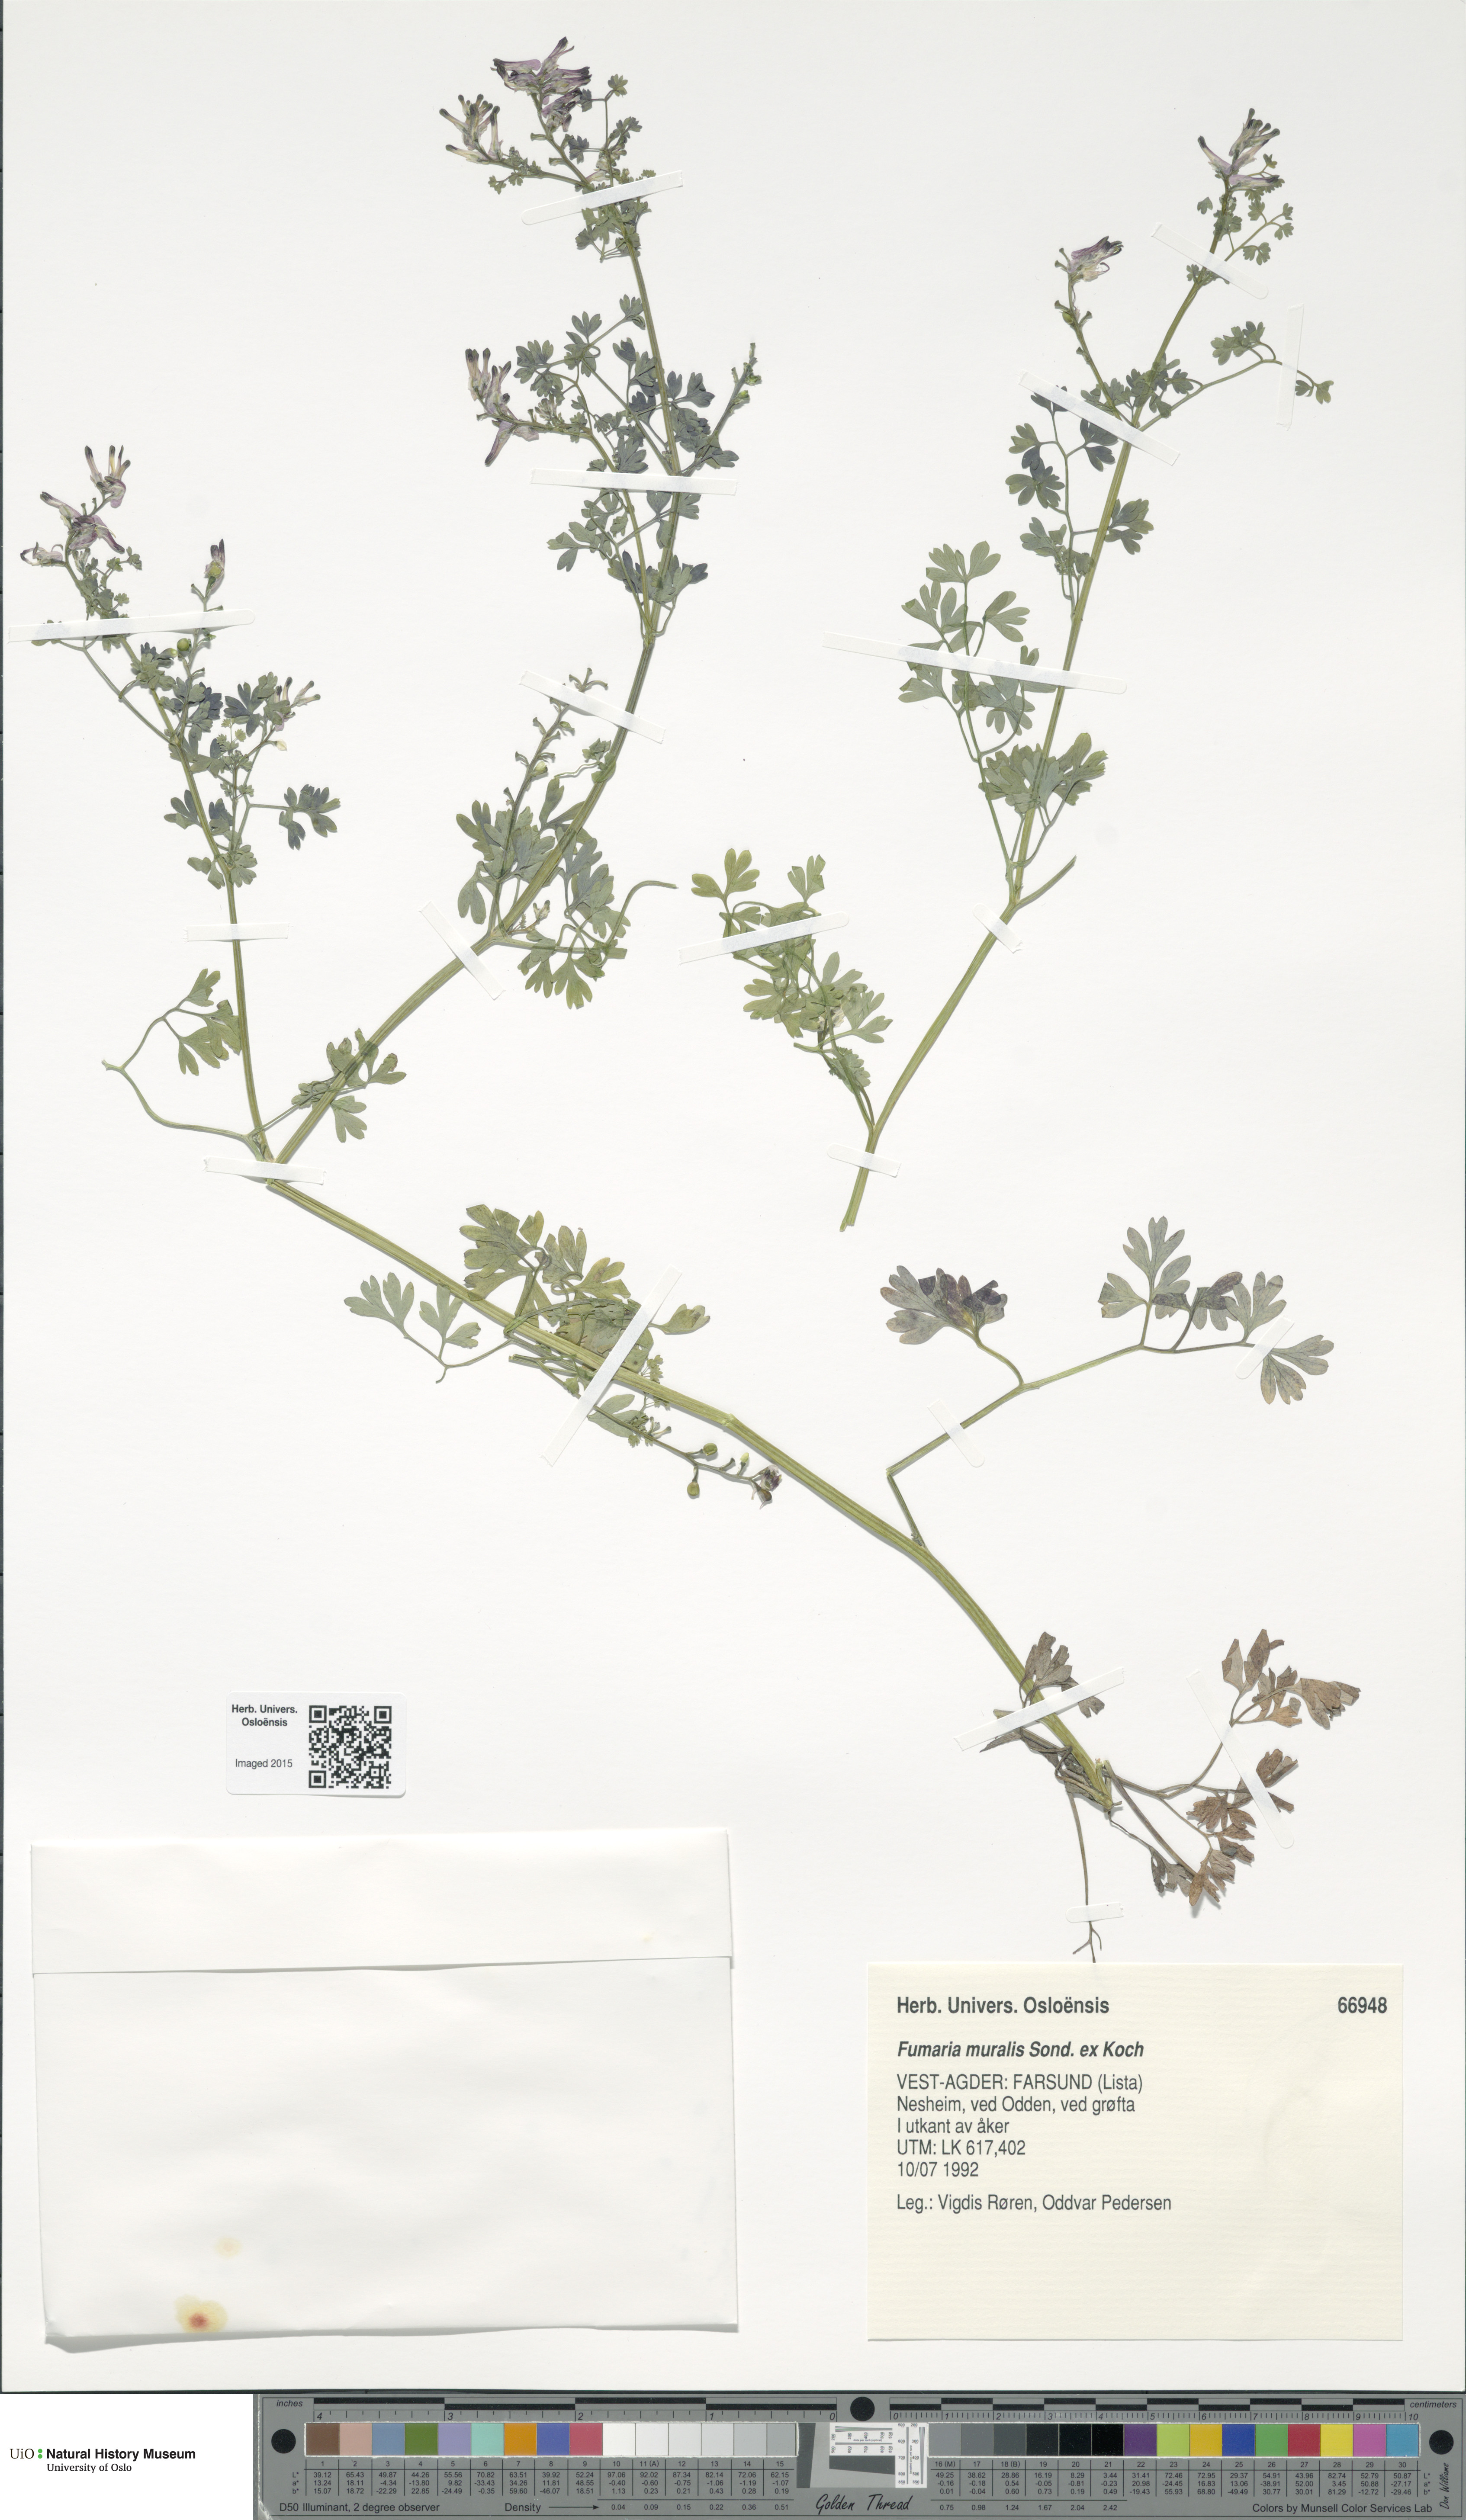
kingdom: Plantae
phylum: Tracheophyta
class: Magnoliopsida
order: Ranunculales
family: Papaveraceae
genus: Fumaria
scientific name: Fumaria muralis
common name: Common ramping-fumitory
